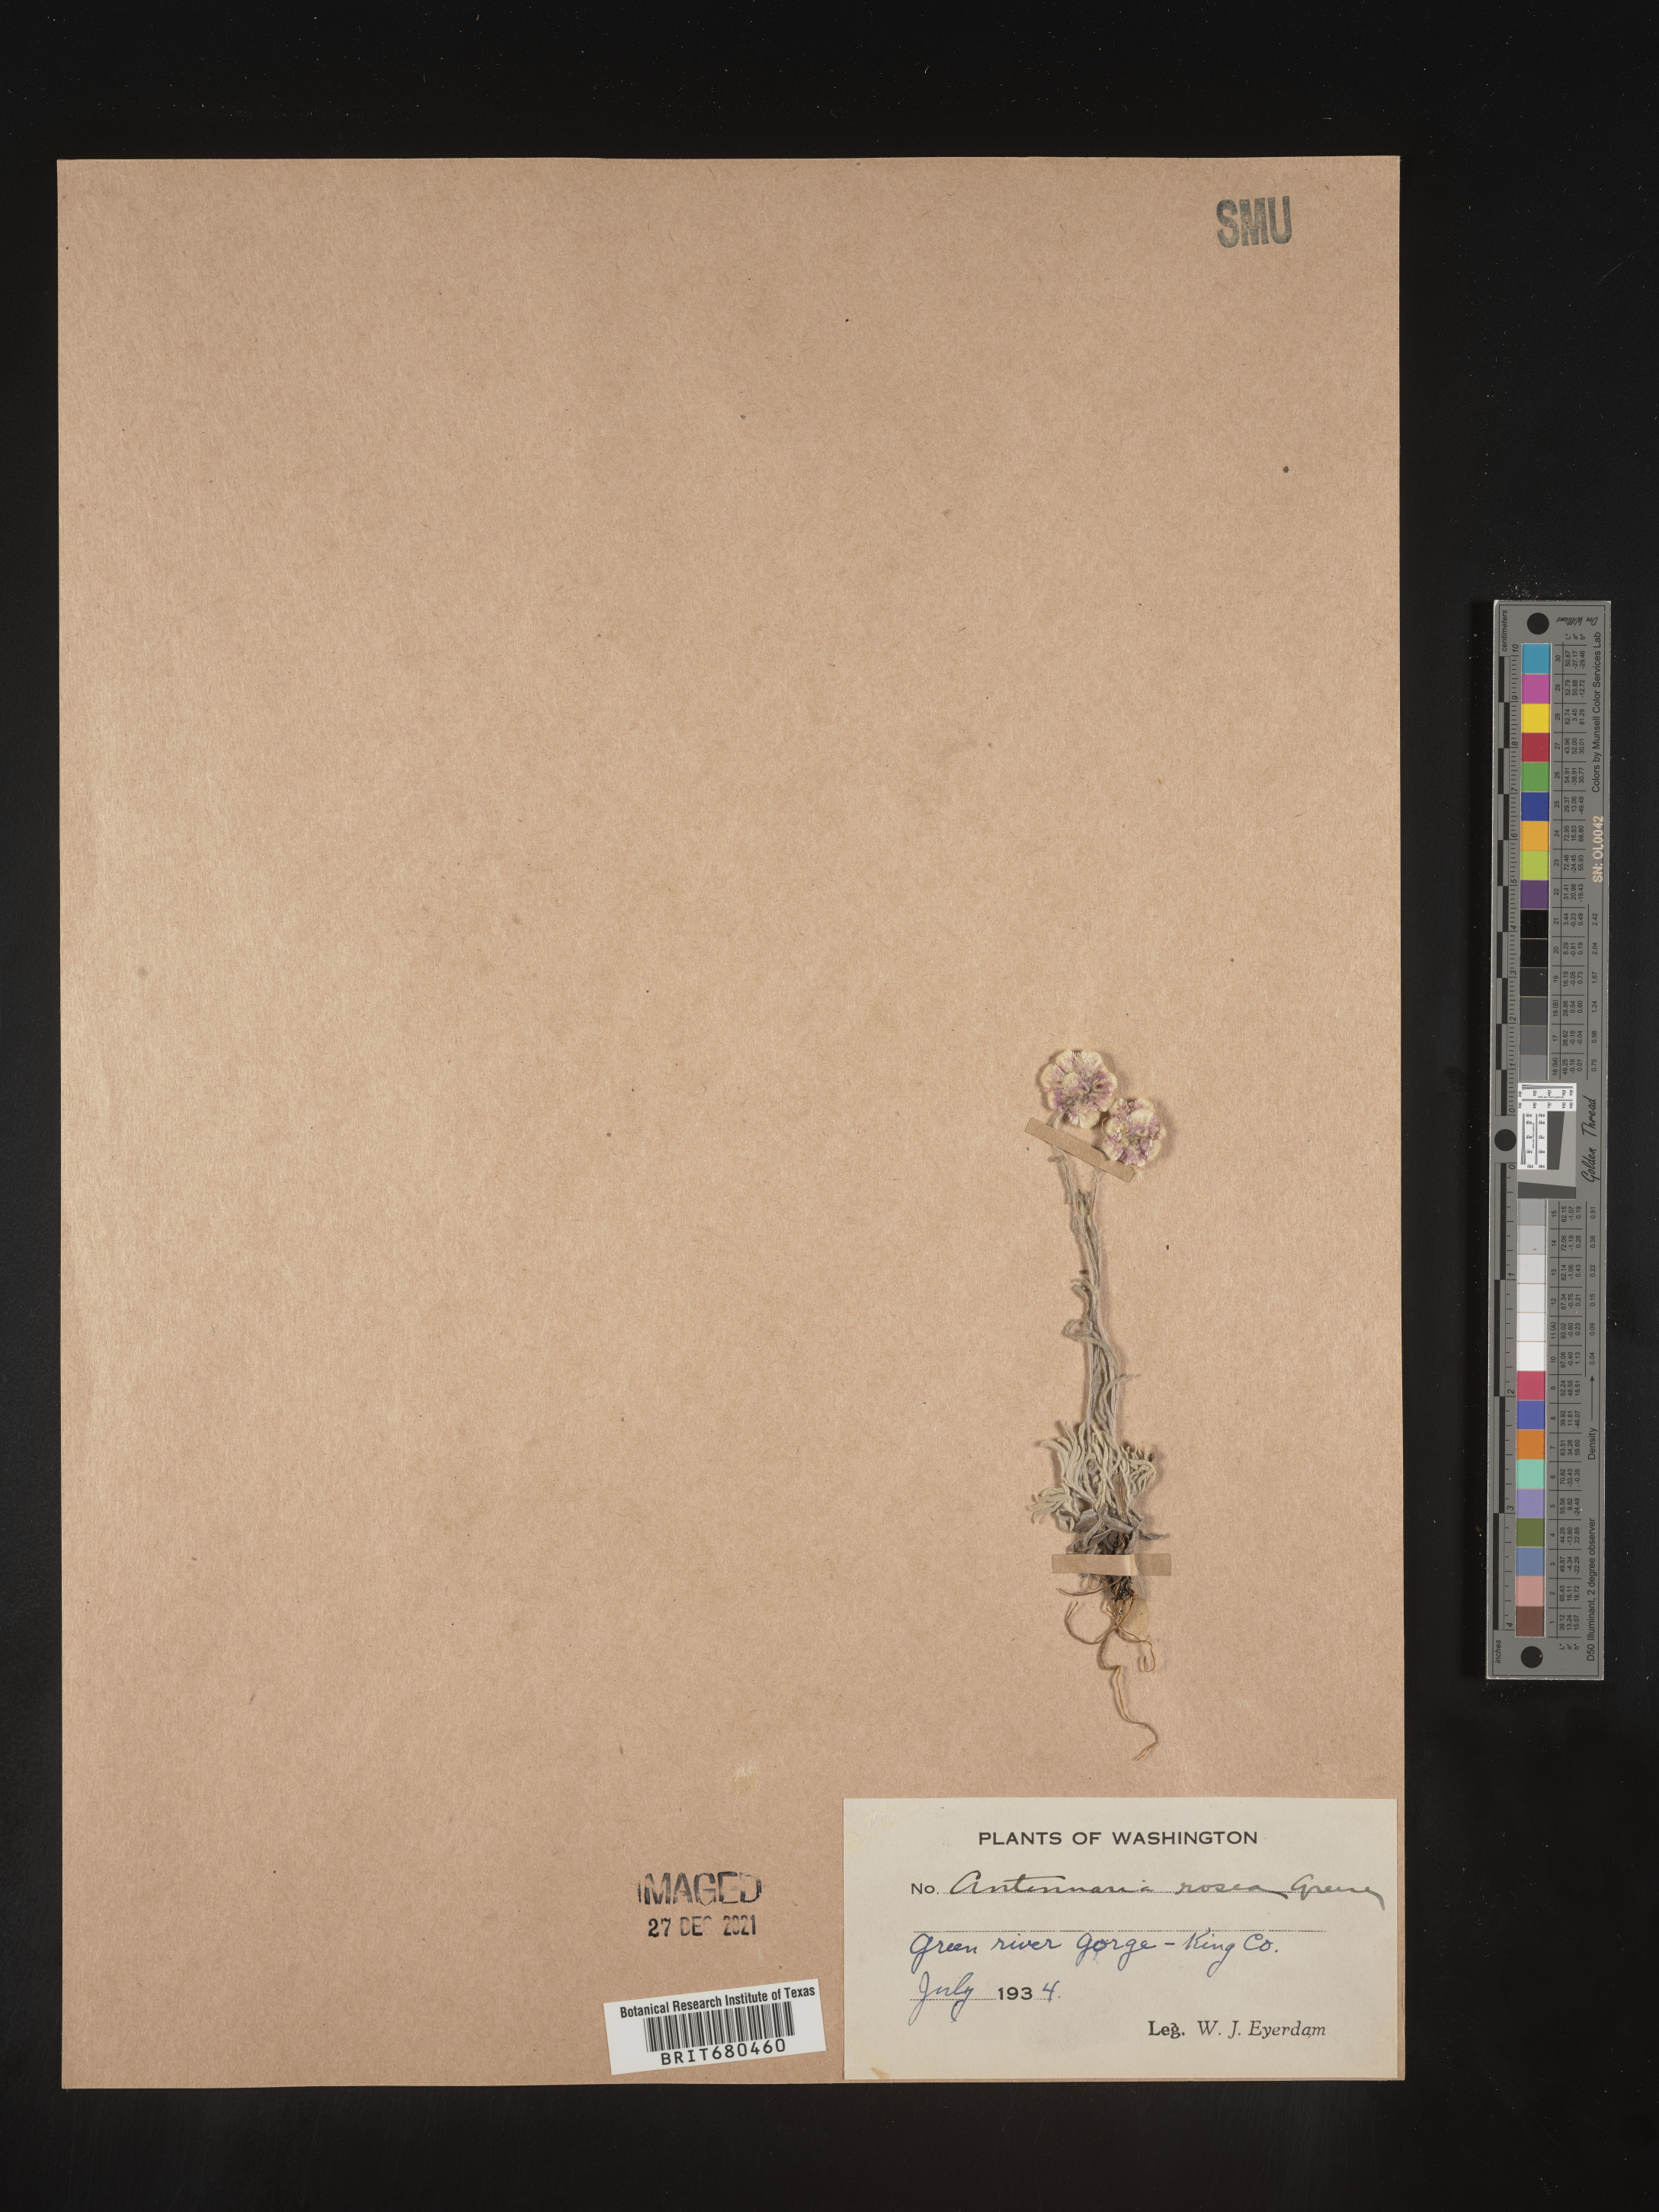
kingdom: Plantae
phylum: Tracheophyta
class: Magnoliopsida
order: Asterales
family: Asteraceae
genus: Antennaria
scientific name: Antennaria rosea
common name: Rosy pussytoes
